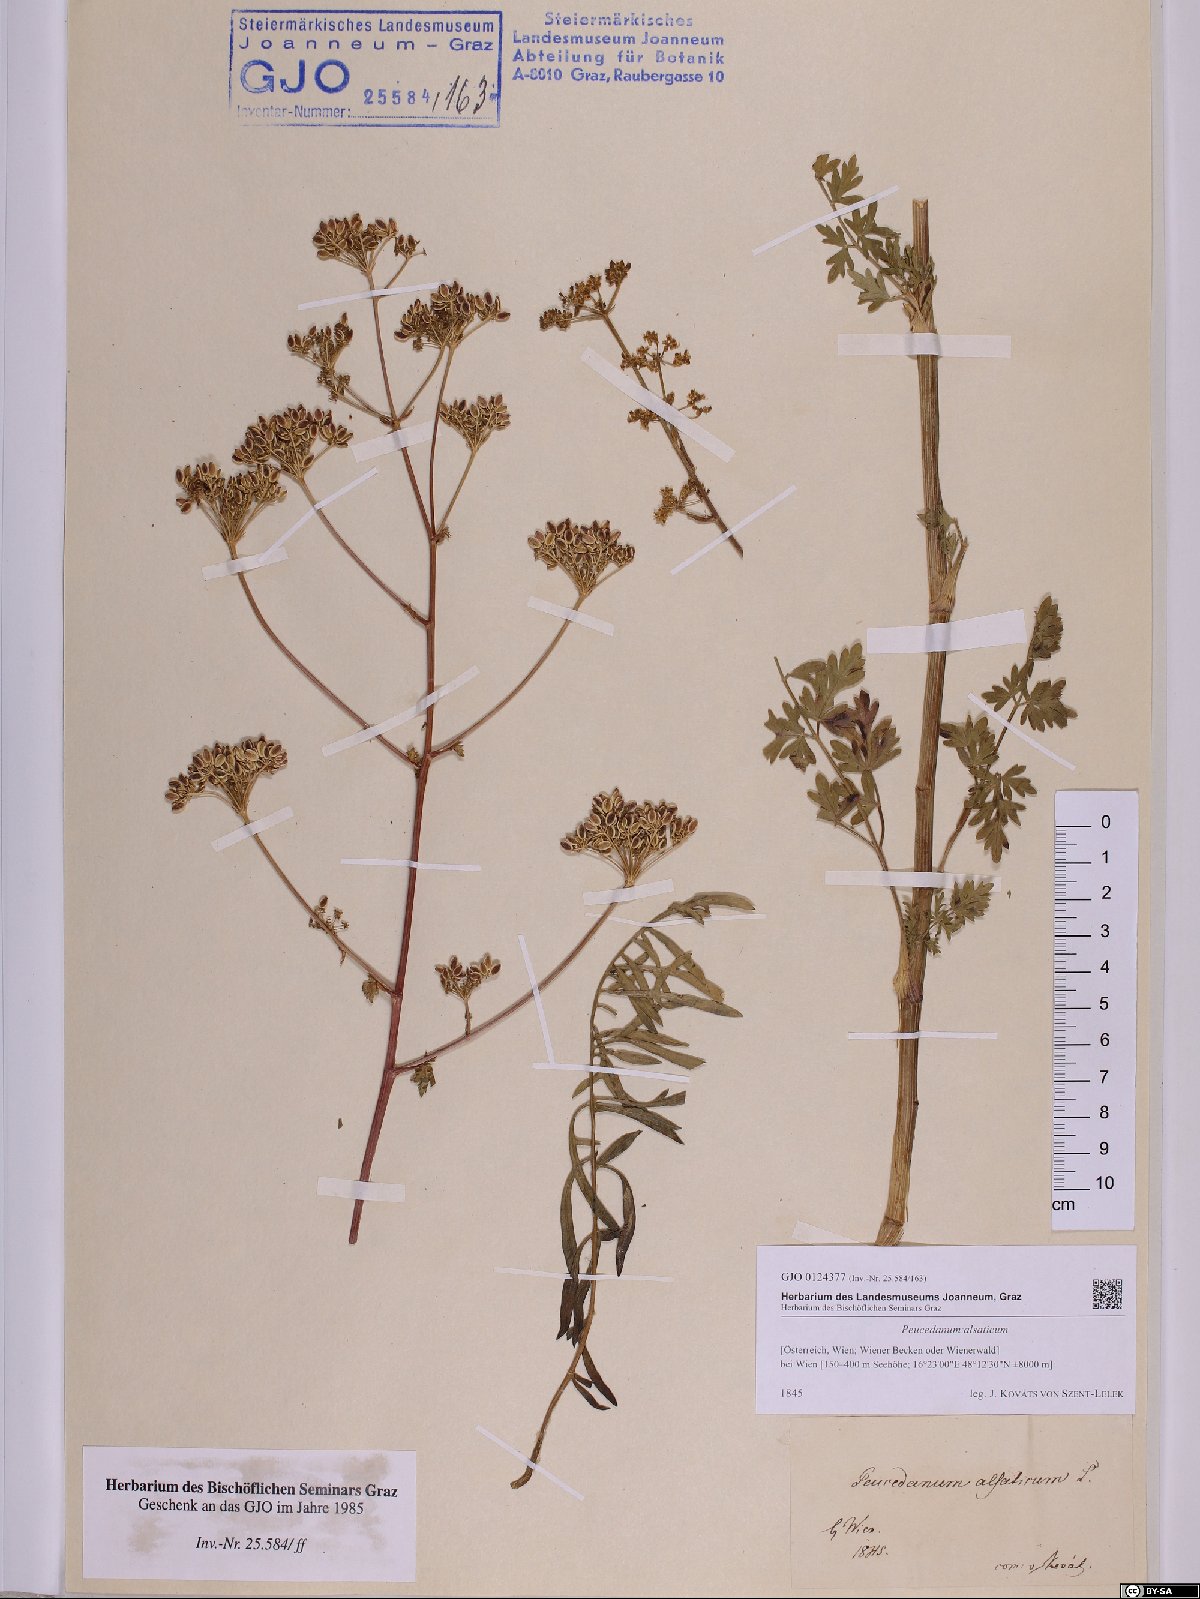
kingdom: Plantae
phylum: Tracheophyta
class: Magnoliopsida
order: Apiales
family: Apiaceae
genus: Xanthoselinum
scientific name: Xanthoselinum alsaticum
